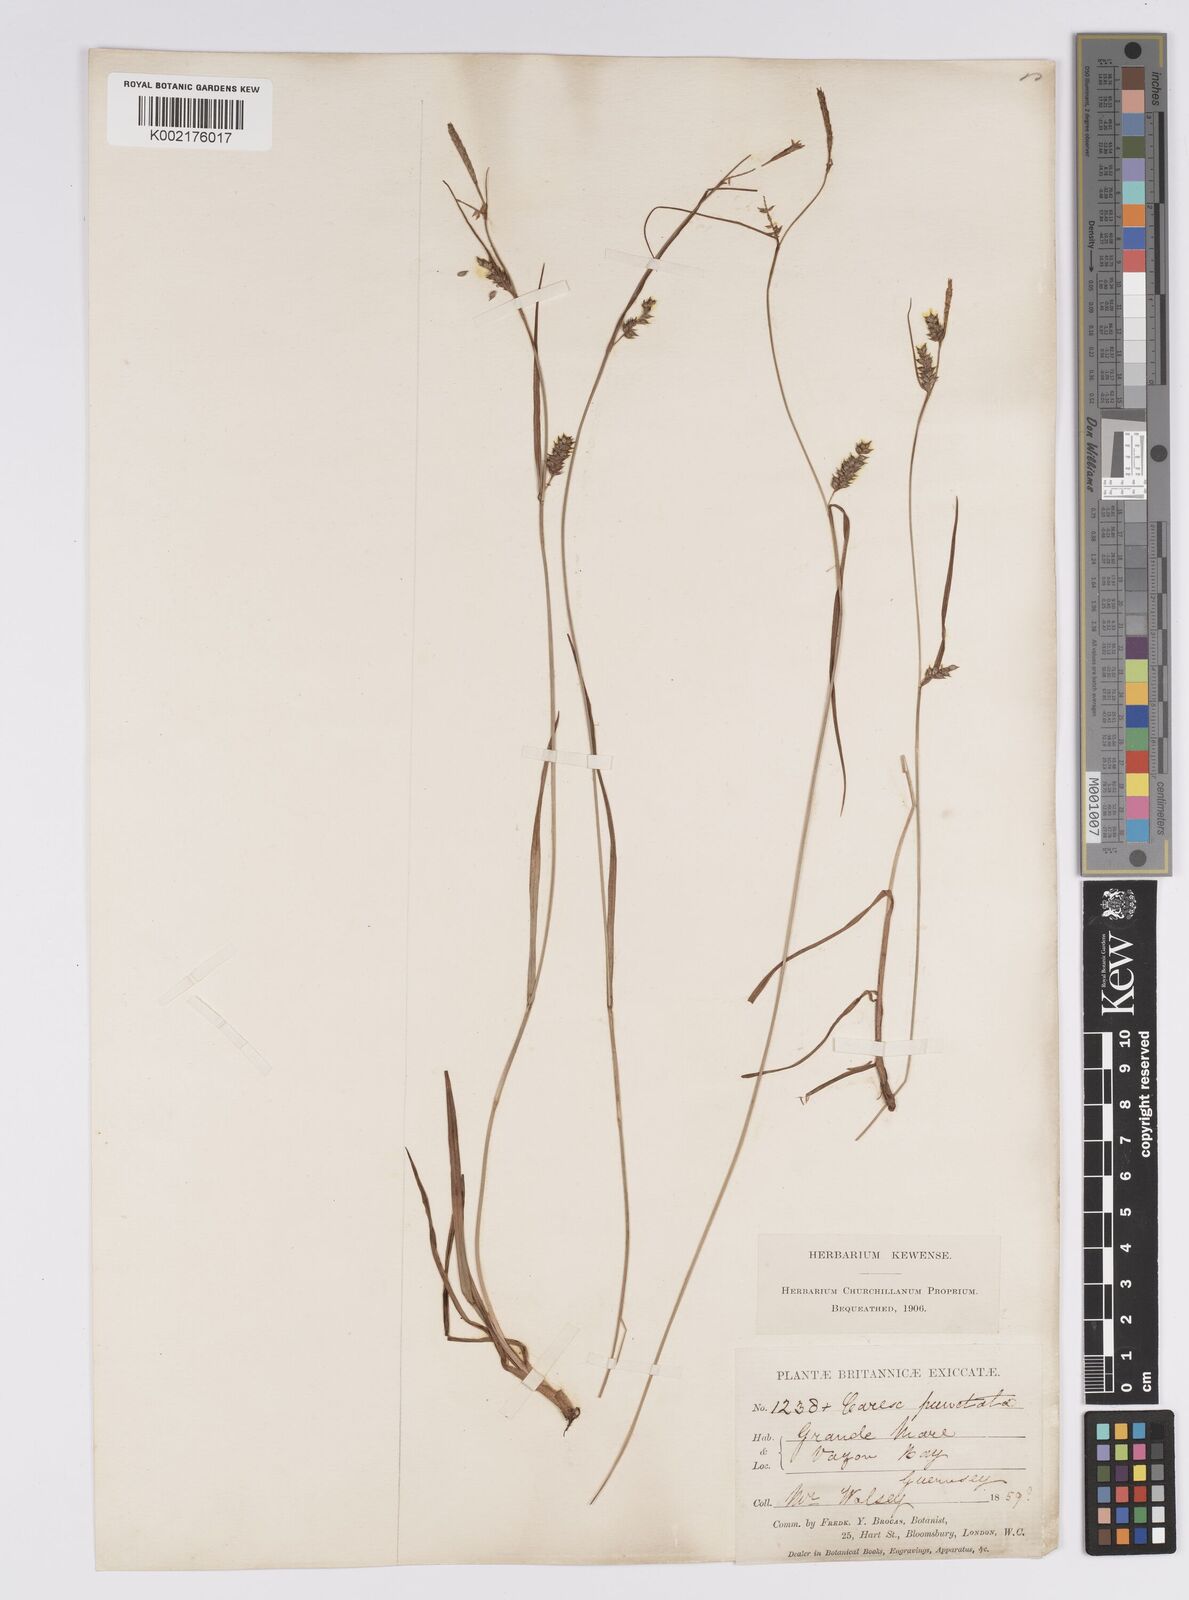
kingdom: Plantae
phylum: Tracheophyta
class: Liliopsida
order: Poales
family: Cyperaceae
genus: Carex
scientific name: Carex punctata
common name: Dotted sedge
